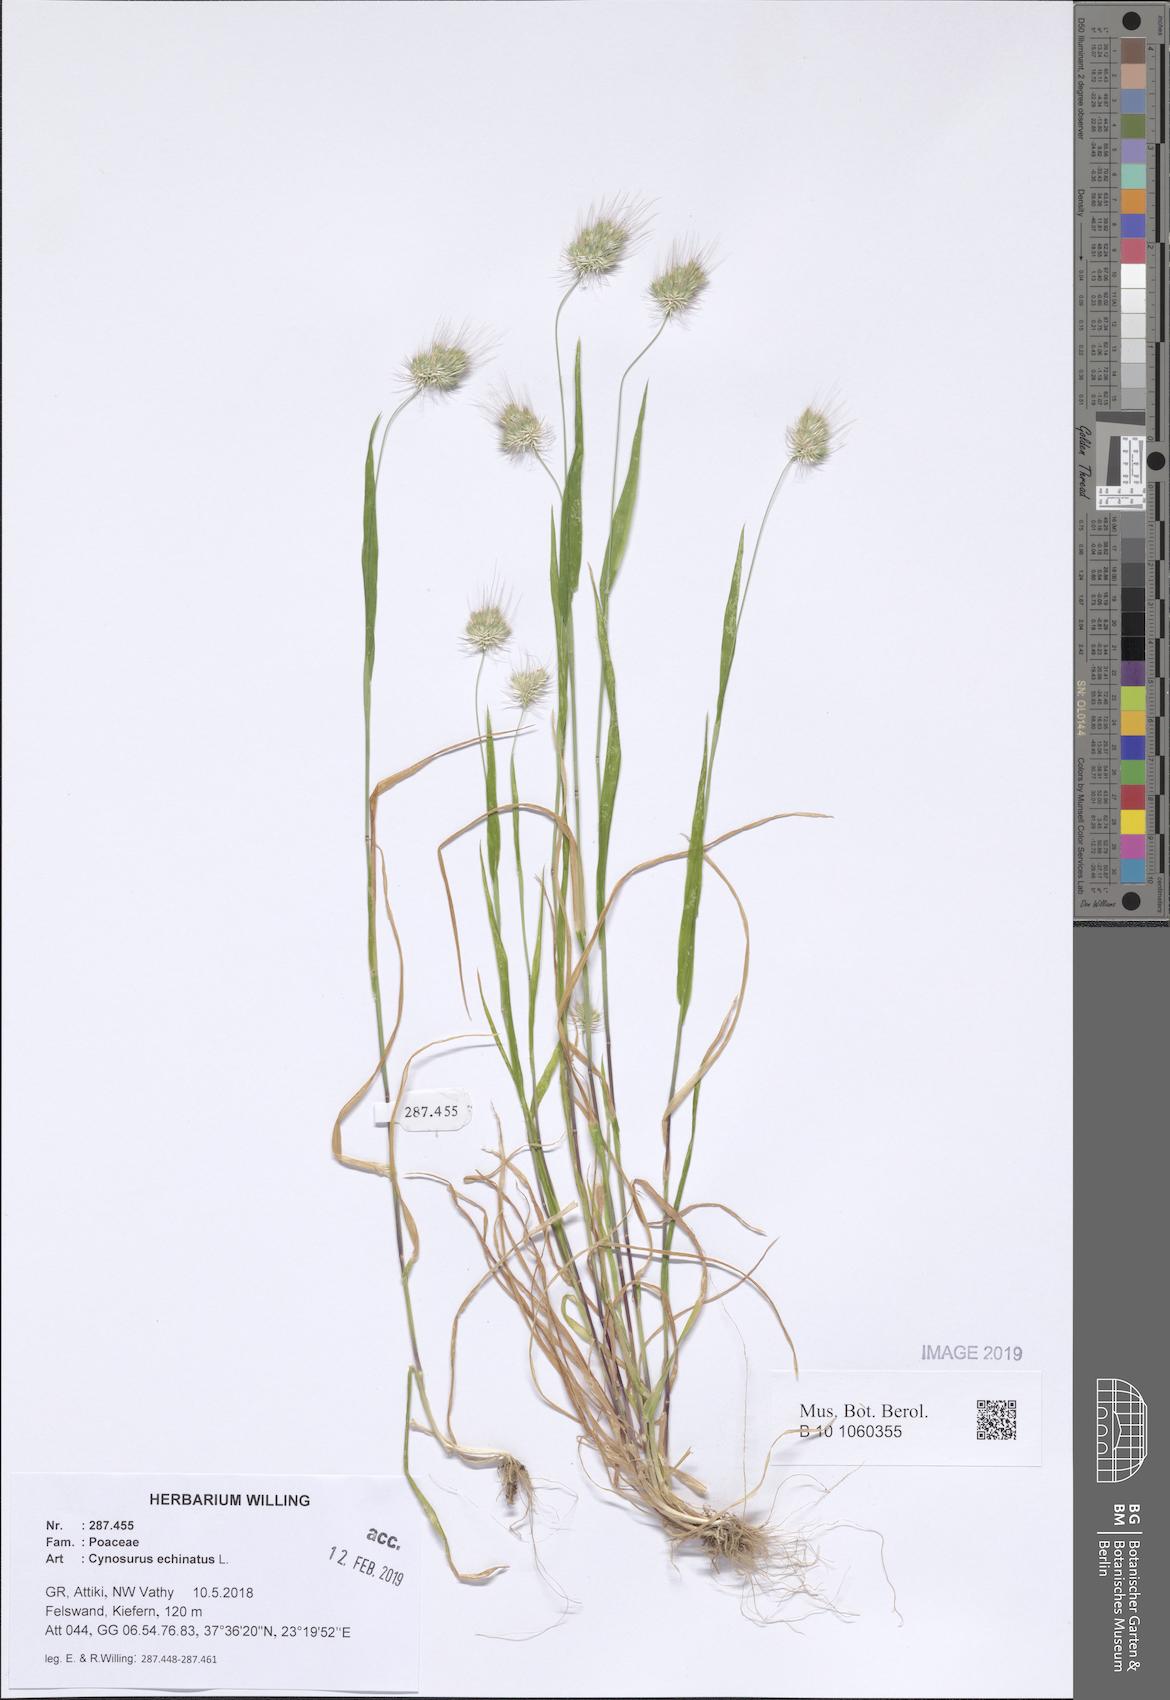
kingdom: Plantae
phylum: Tracheophyta
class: Liliopsida
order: Poales
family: Poaceae
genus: Cynosurus
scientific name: Cynosurus echinatus
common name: Rough dog's-tail
